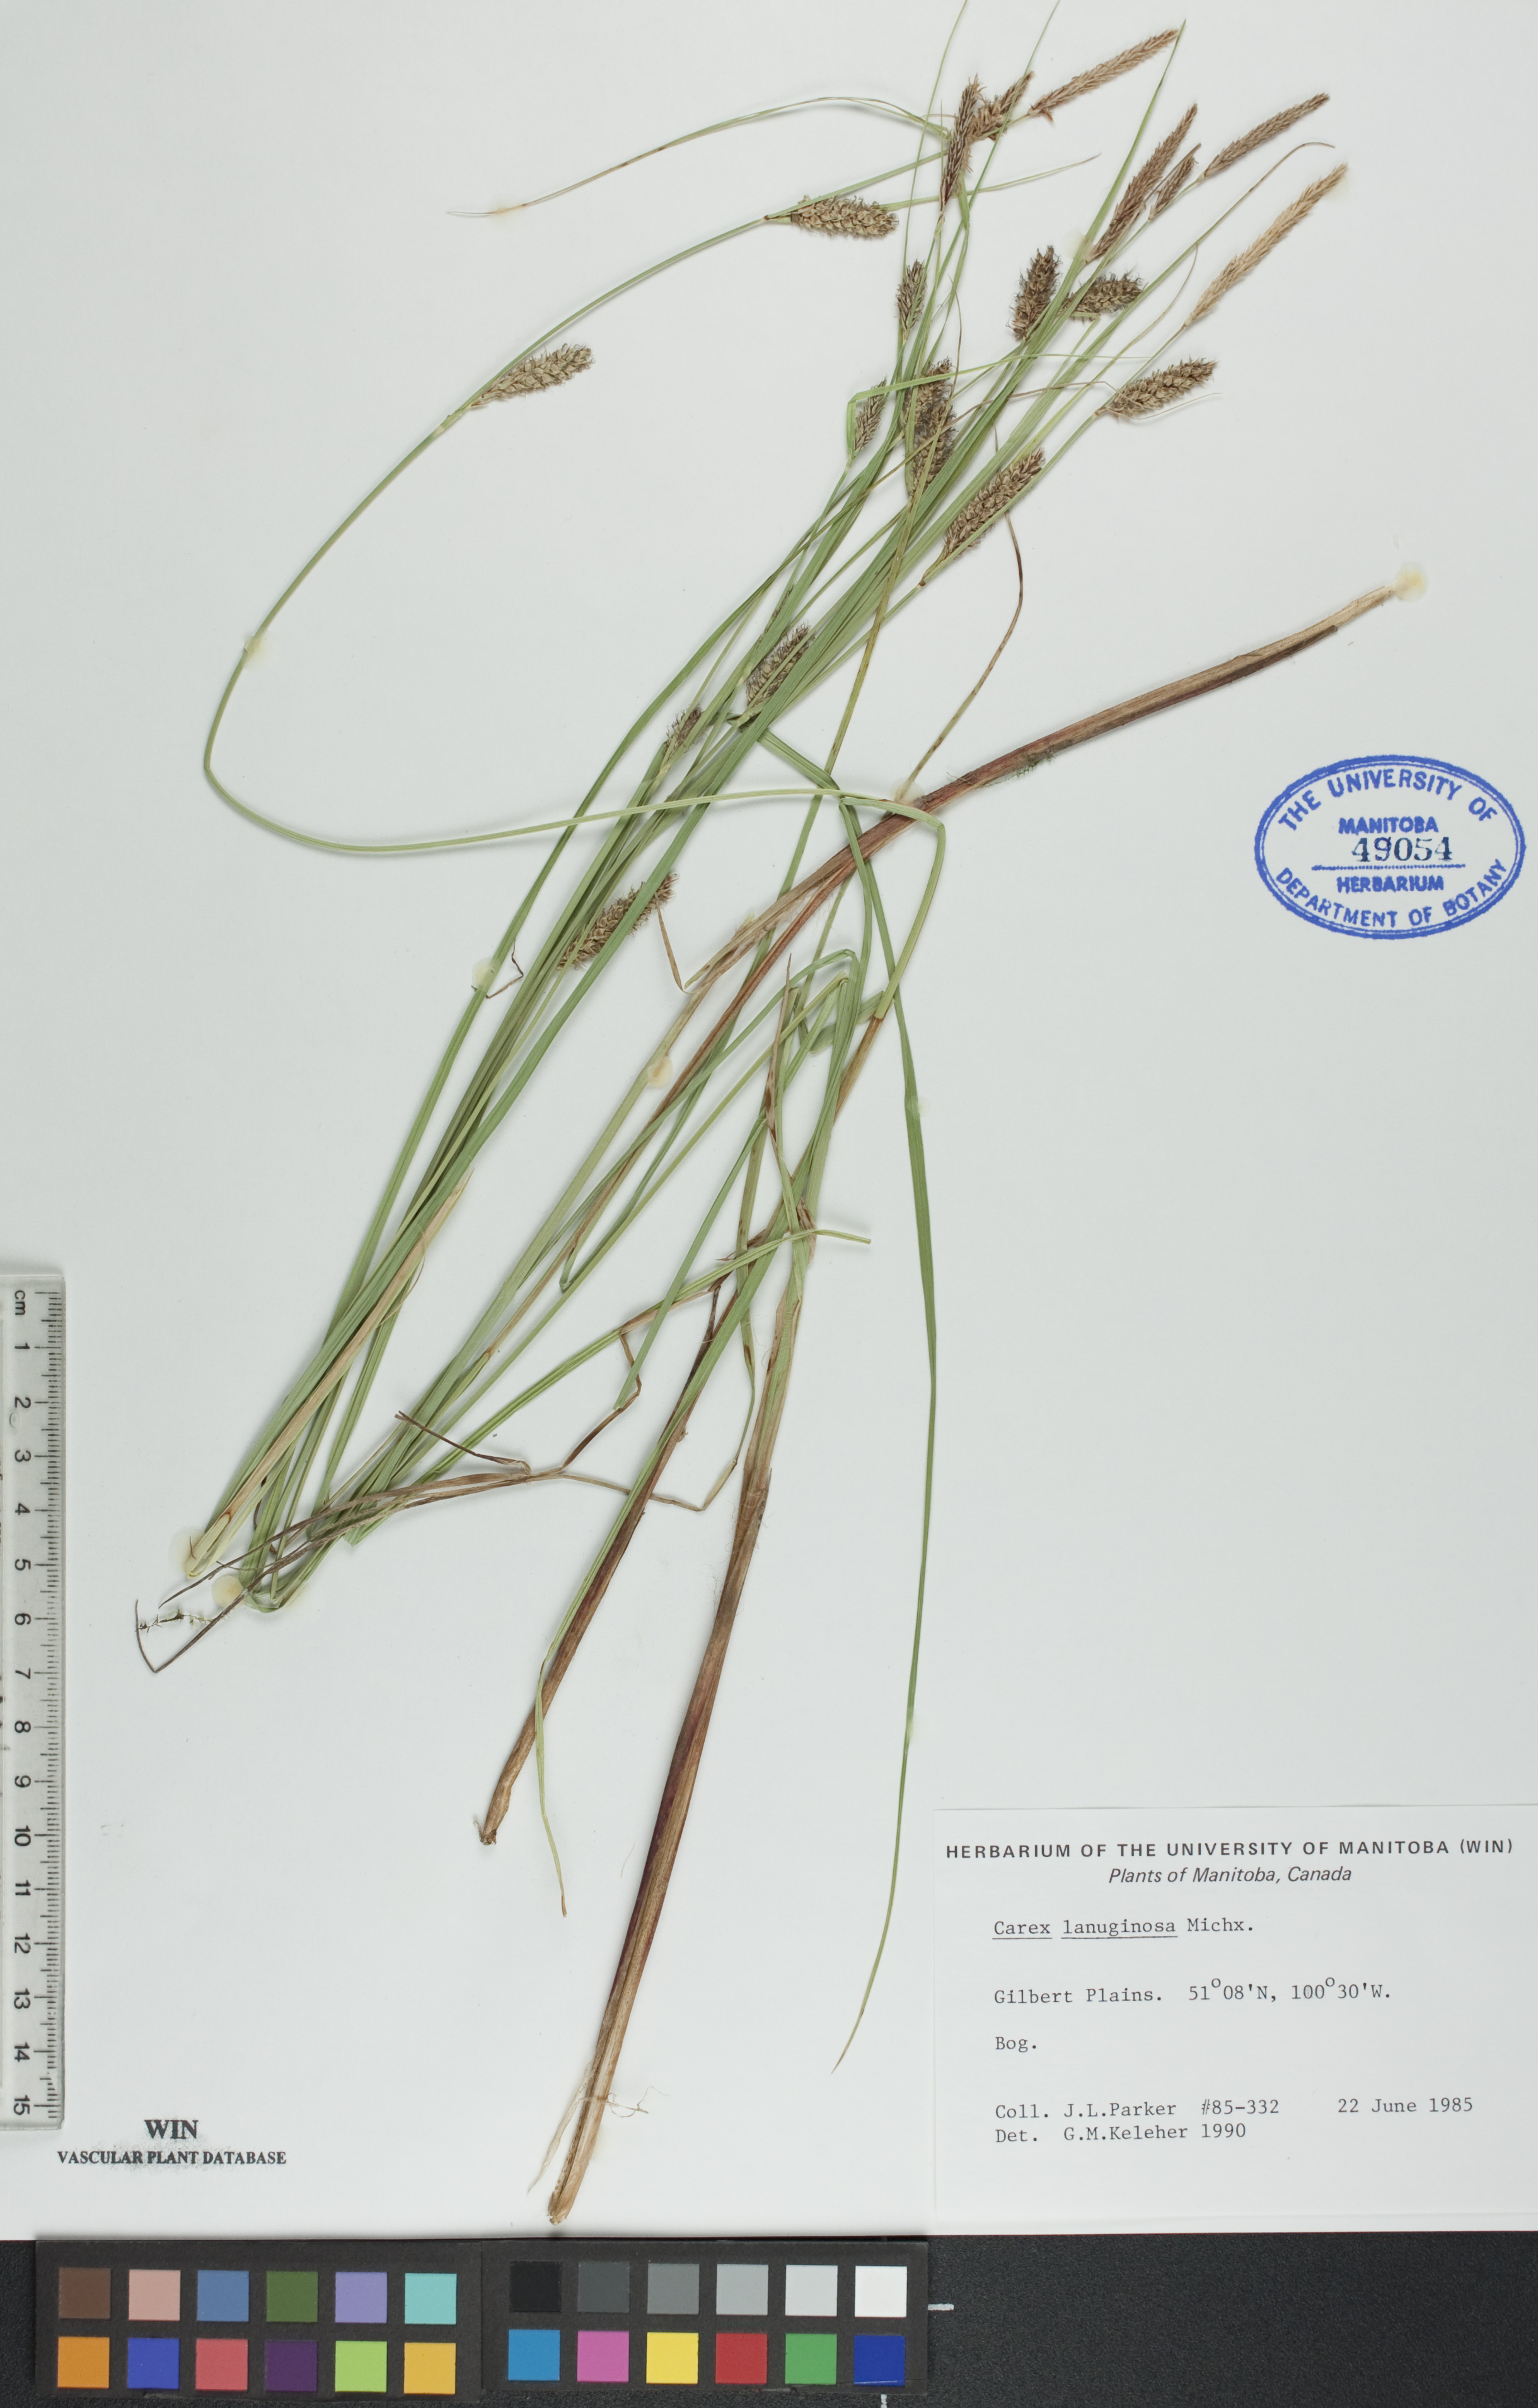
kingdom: Plantae
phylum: Tracheophyta
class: Liliopsida
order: Poales
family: Cyperaceae
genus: Carex
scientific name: Carex lasiocarpa
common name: Slender sedge
